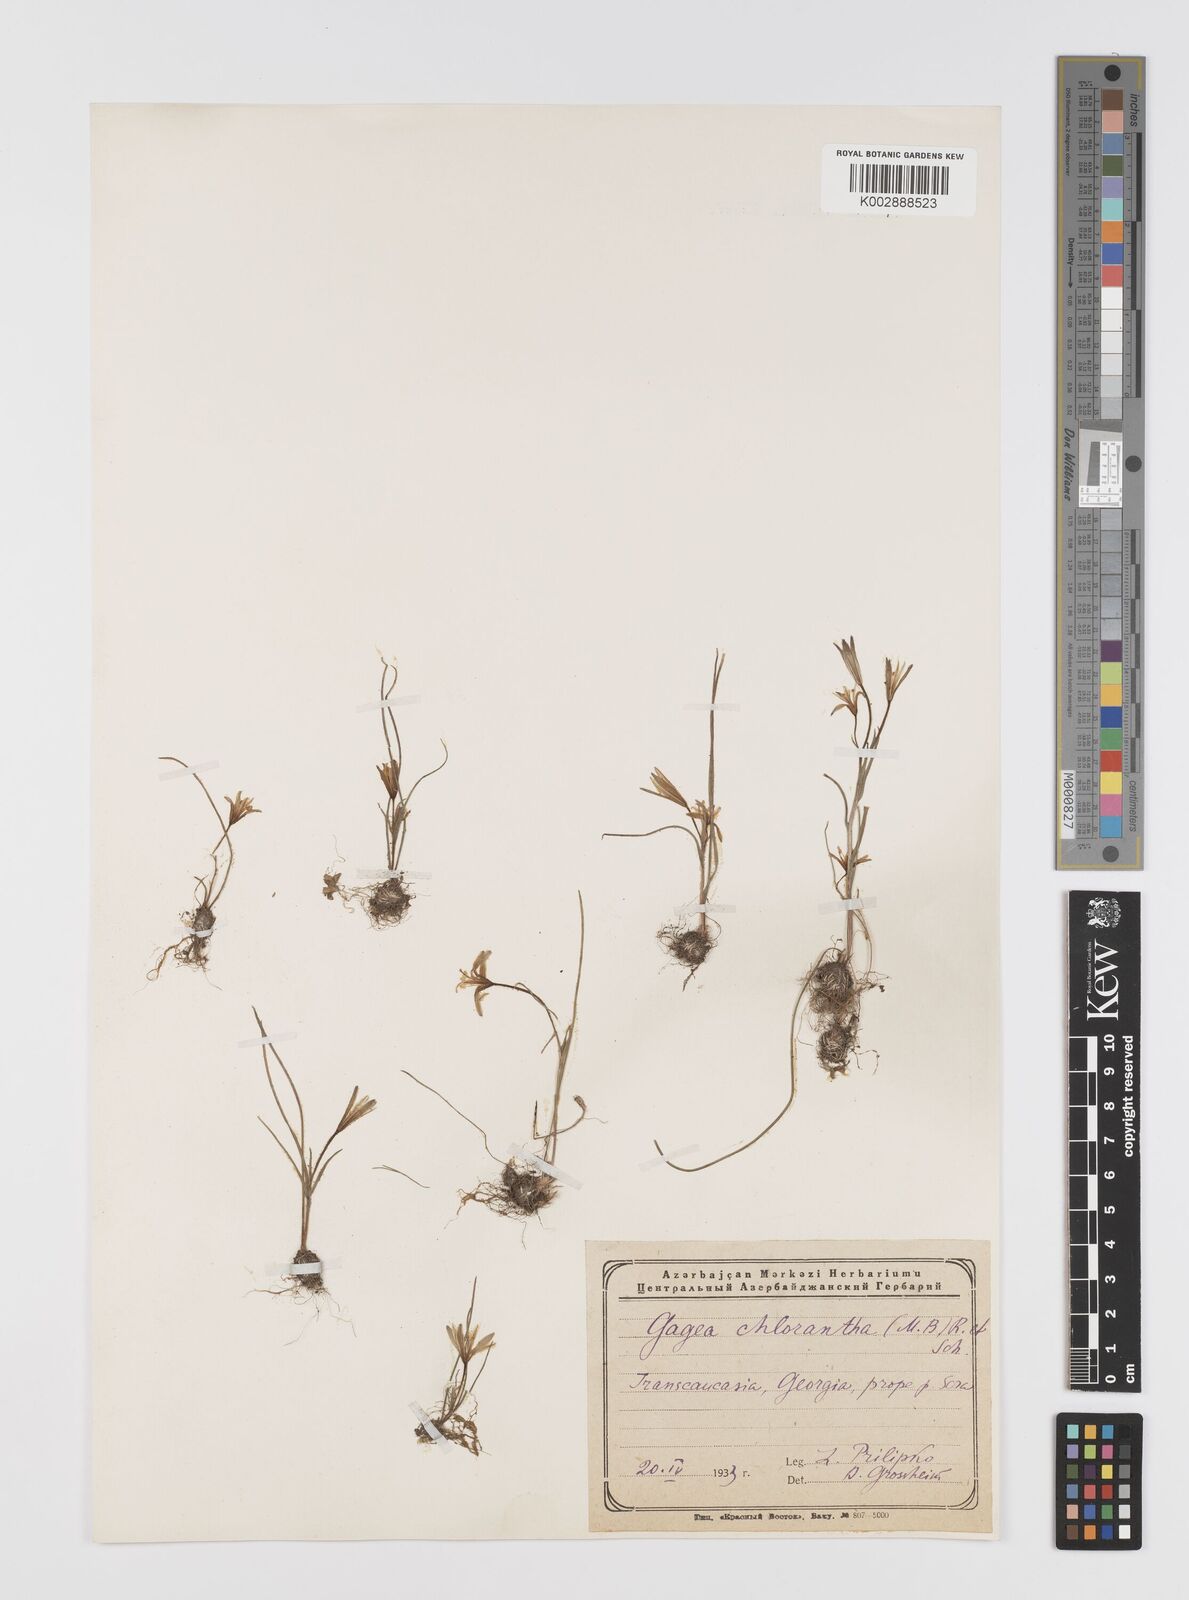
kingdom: Plantae
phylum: Tracheophyta
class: Liliopsida
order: Liliales
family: Liliaceae
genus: Gagea
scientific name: Gagea chlorantha
